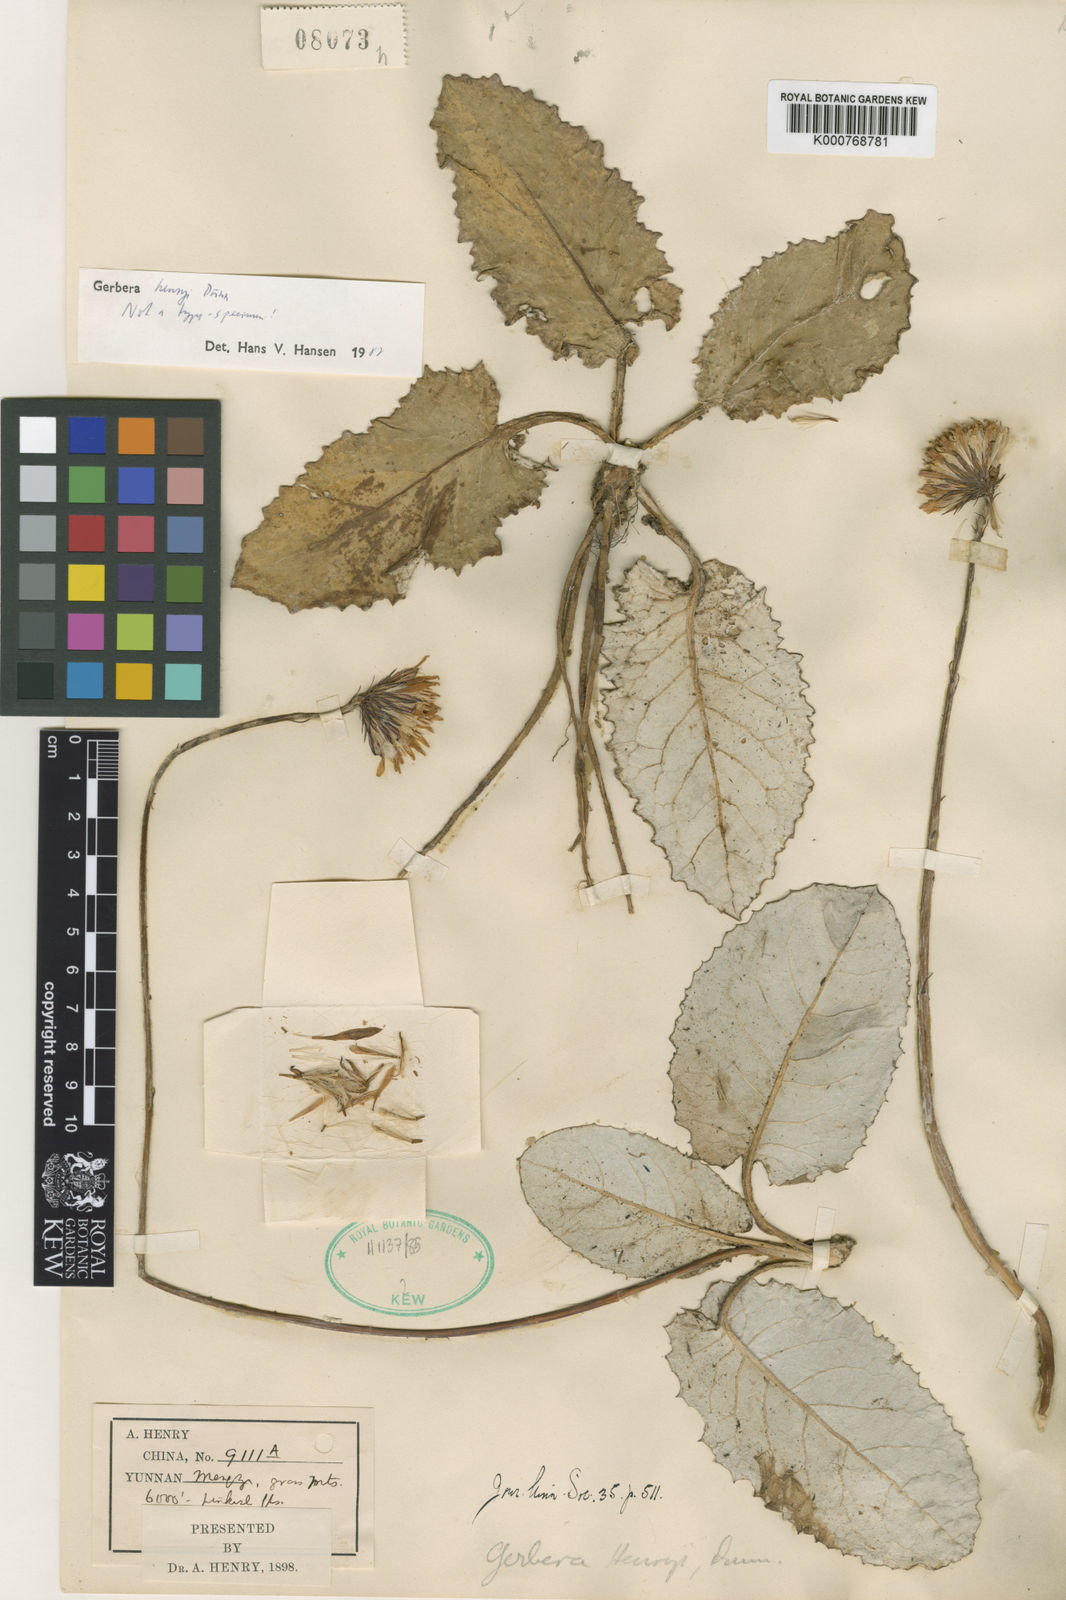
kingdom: Plantae
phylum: Tracheophyta
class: Magnoliopsida
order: Asterales
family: Asteraceae
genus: Oreoseris
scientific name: Oreoseris henryi
